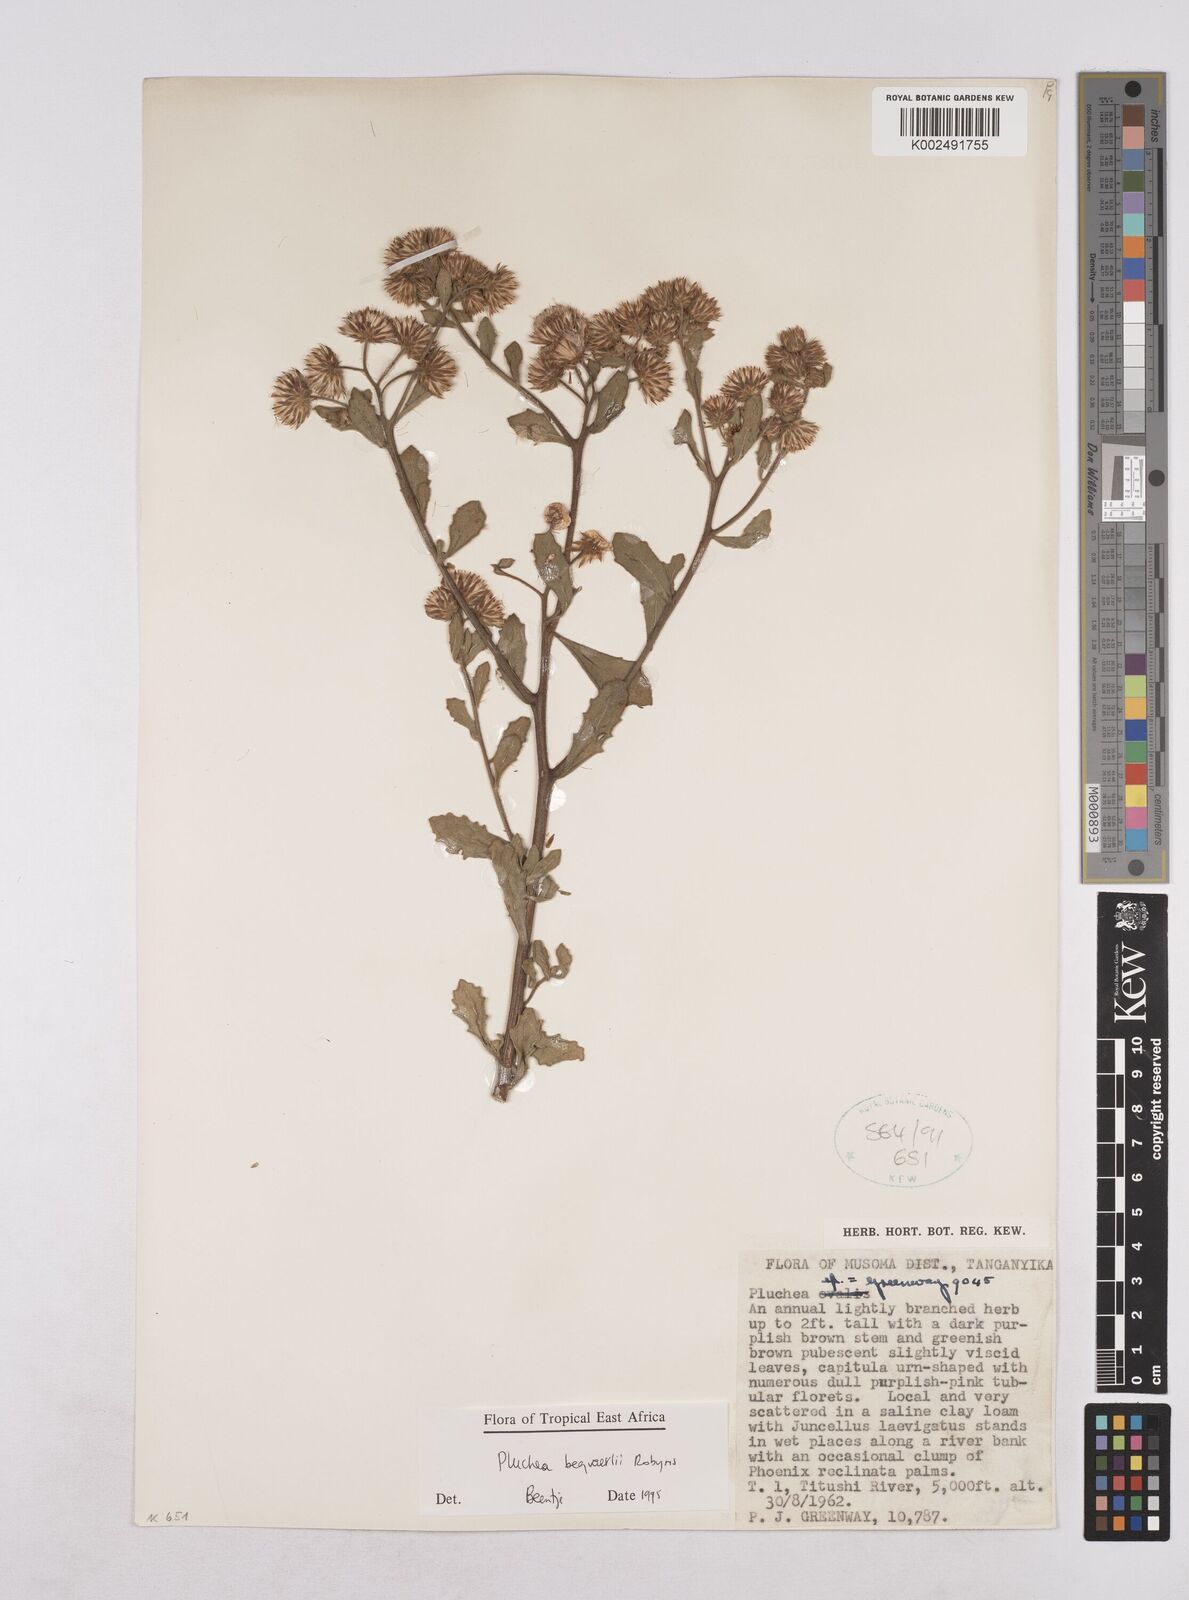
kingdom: Plantae
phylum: Tracheophyta
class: Magnoliopsida
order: Asterales
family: Asteraceae
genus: Pluchea
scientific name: Pluchea sordida
